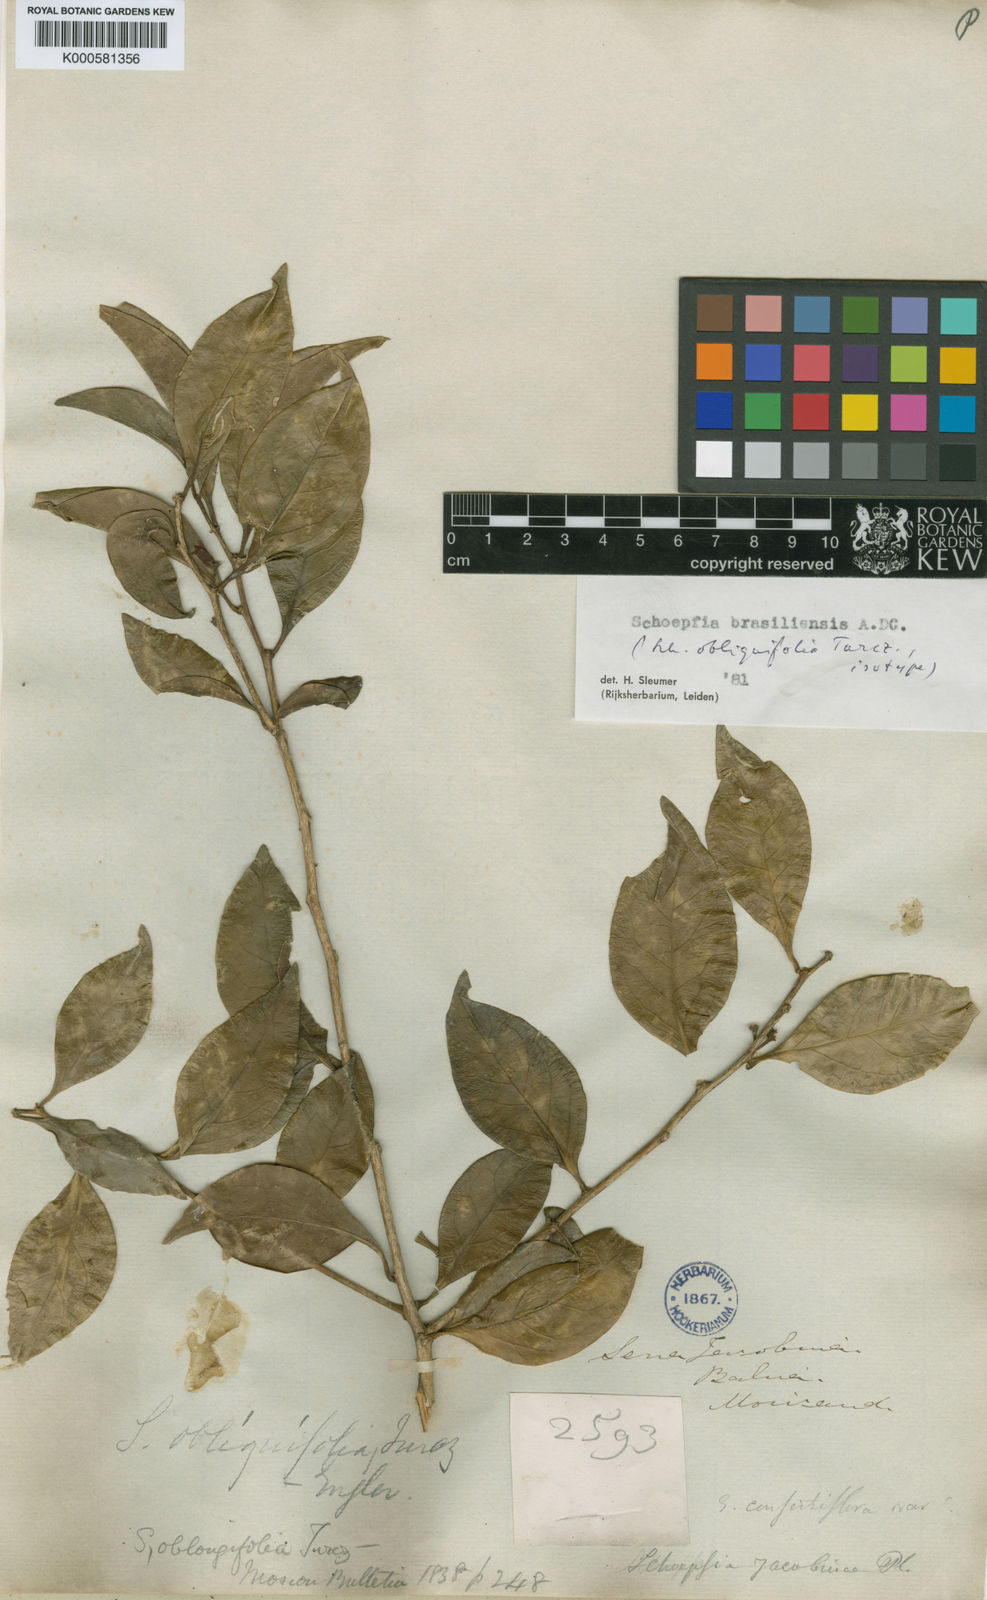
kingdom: Plantae
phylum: Tracheophyta
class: Magnoliopsida
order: Santalales
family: Schoepfiaceae
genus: Schoepfia
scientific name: Schoepfia brasiliensis
